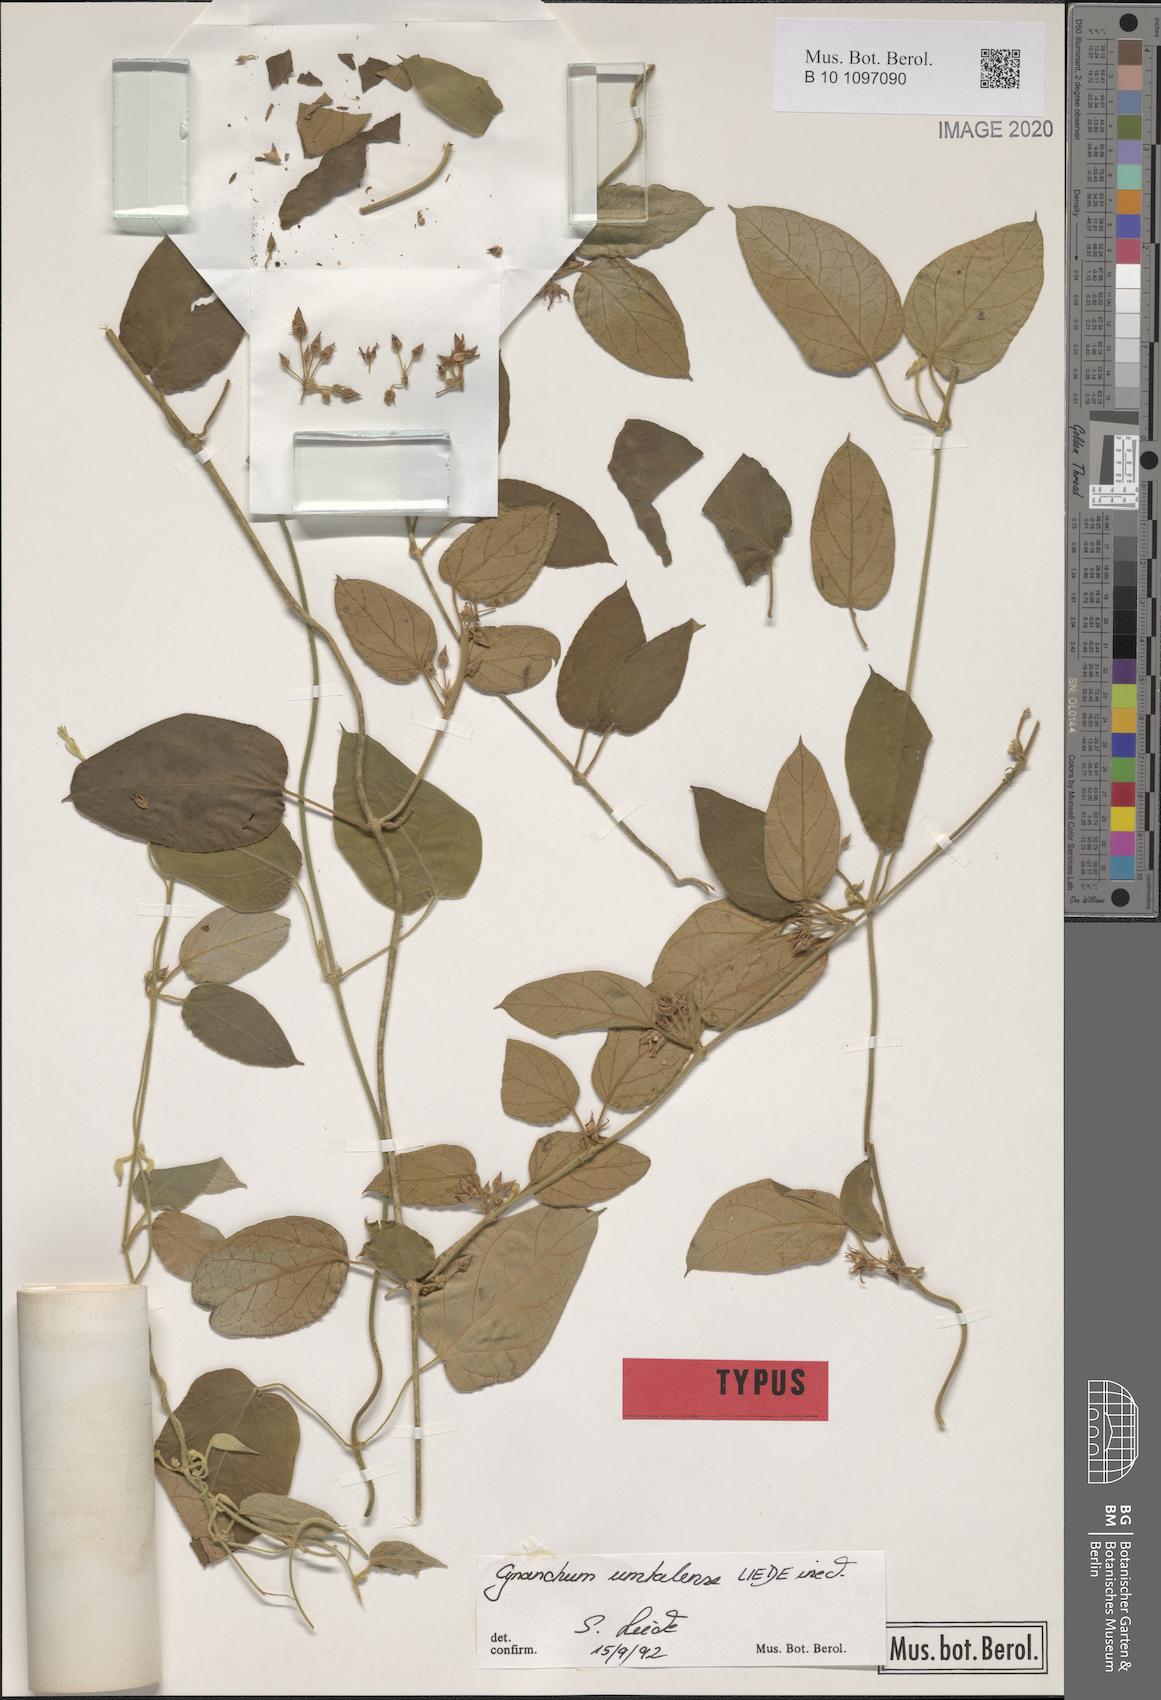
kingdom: Plantae
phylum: Tracheophyta
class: Magnoliopsida
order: Gentianales
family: Apocynaceae
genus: Cynanchum
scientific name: Cynanchum umtalense
